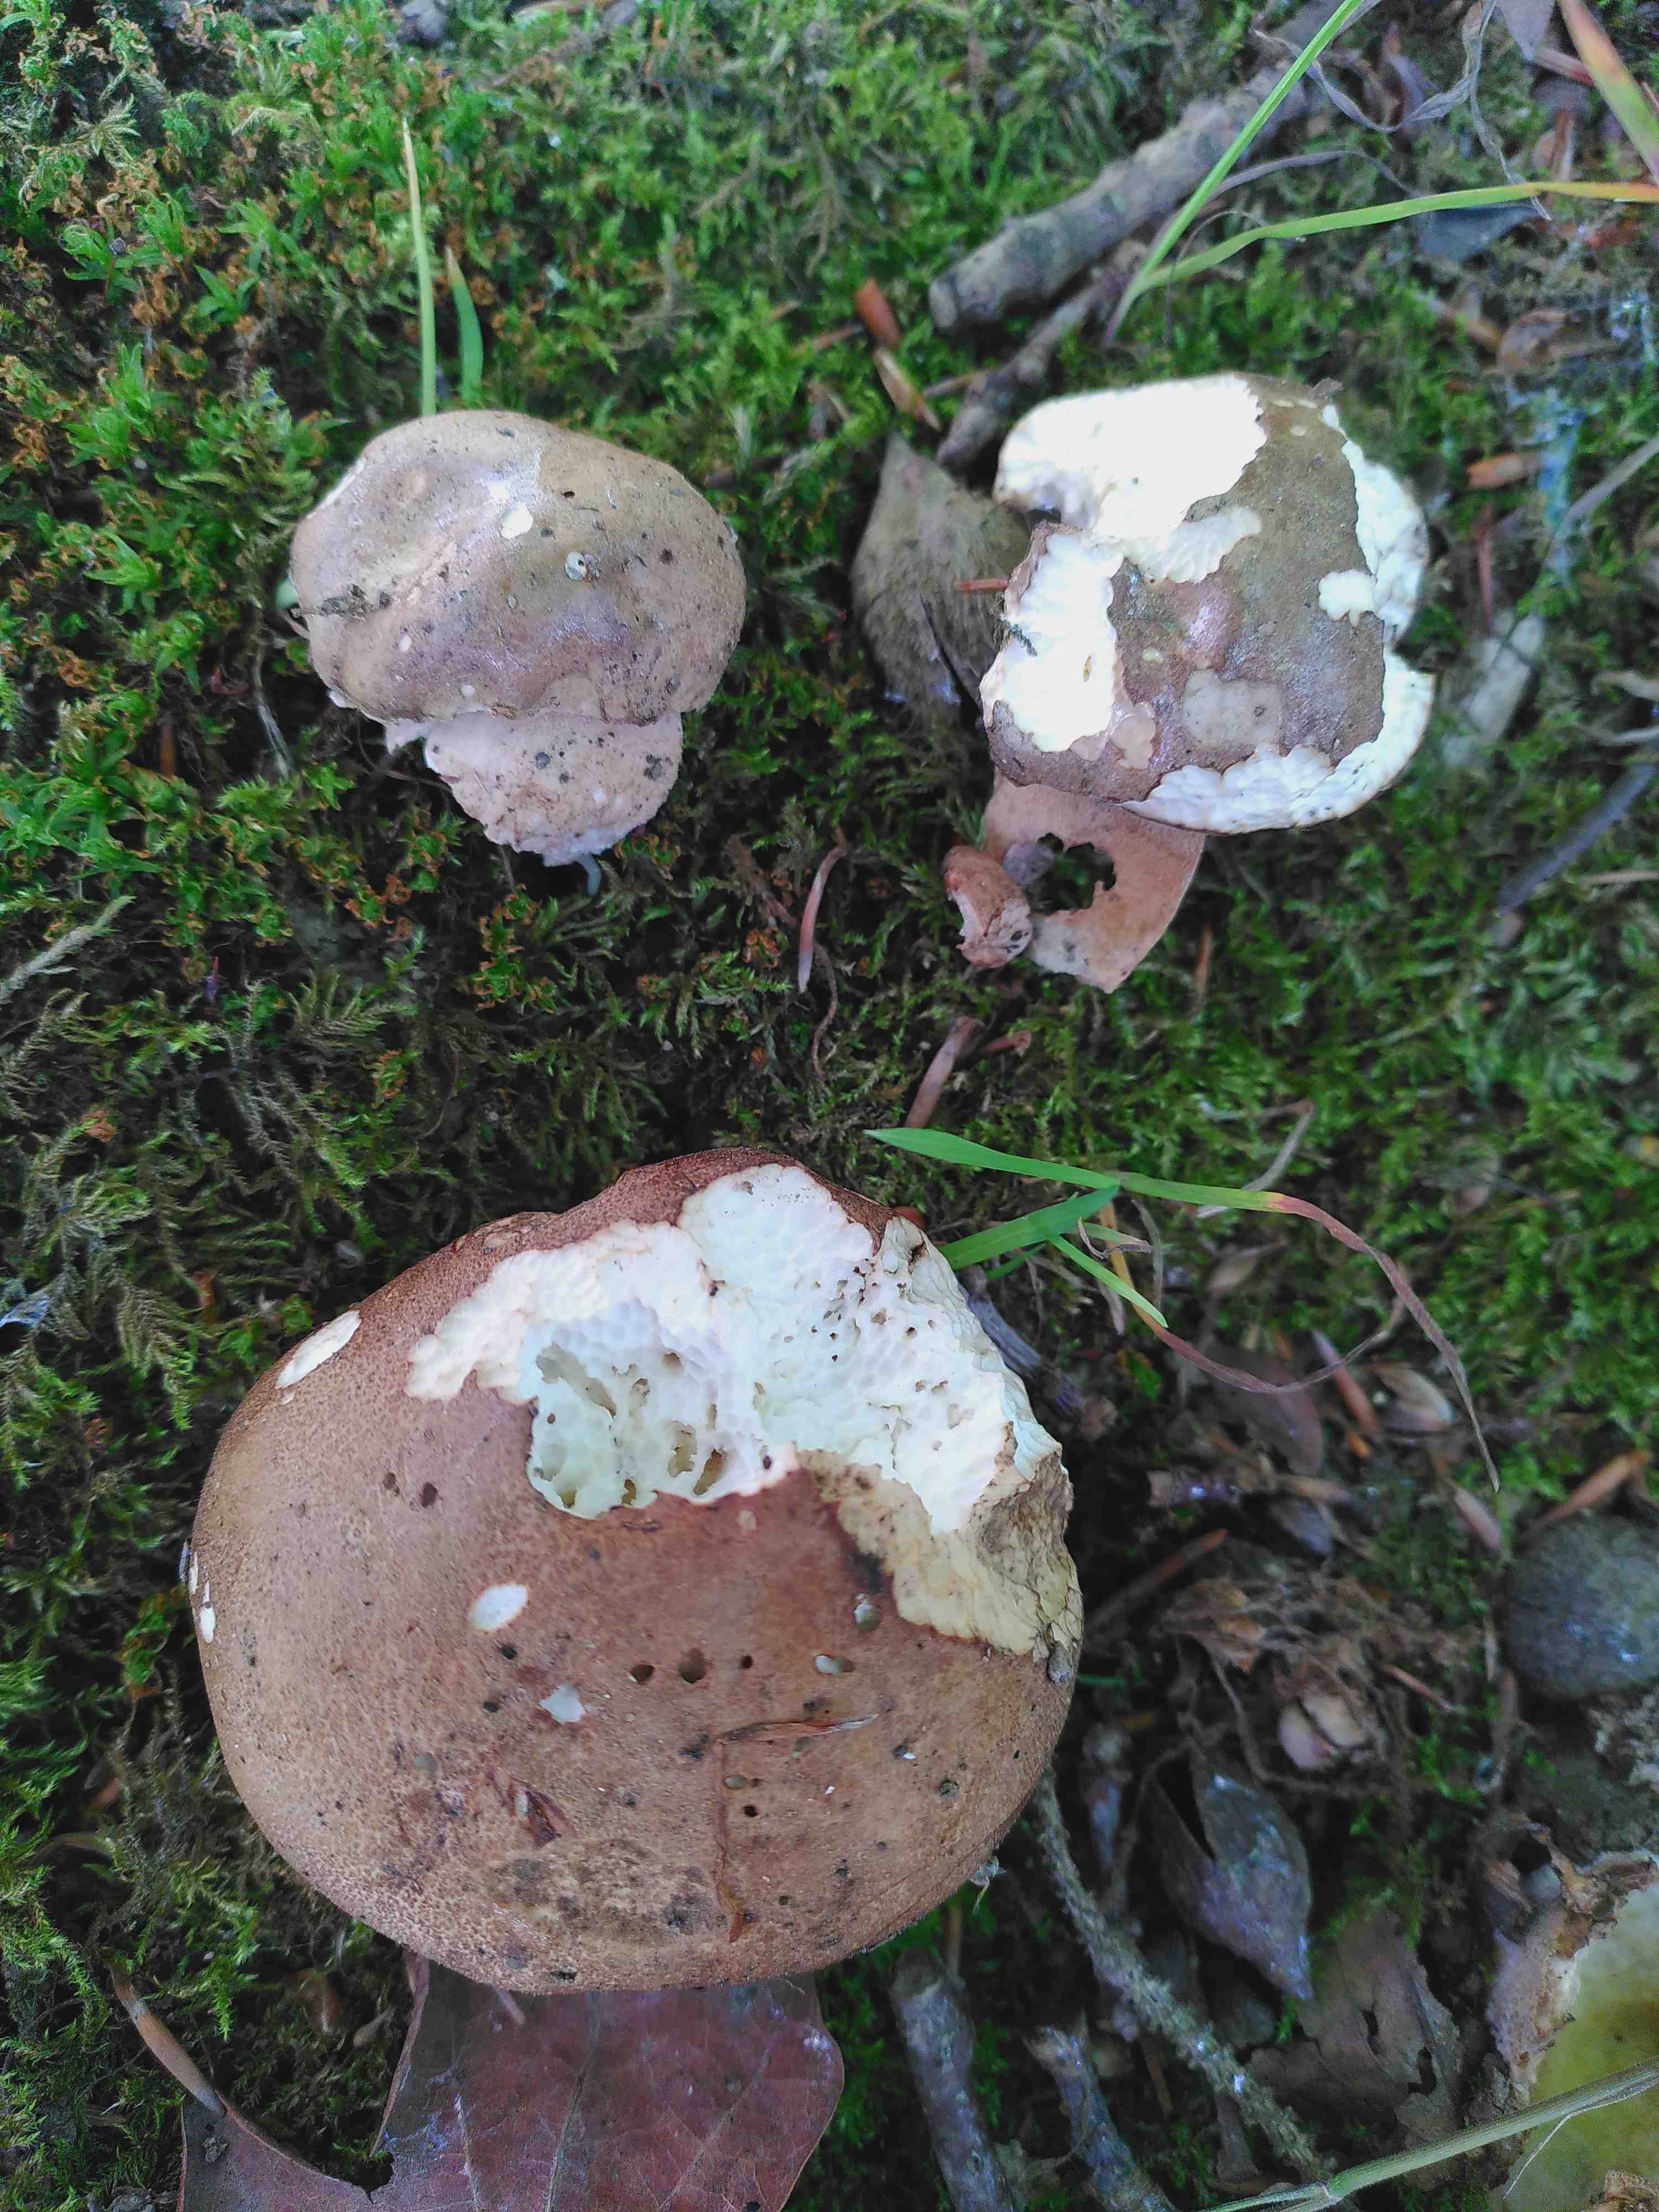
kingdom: Fungi
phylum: Basidiomycota
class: Agaricomycetes
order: Boletales
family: Boletaceae
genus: Boletus
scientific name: Boletus reticulatus
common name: sommer-rørhat
